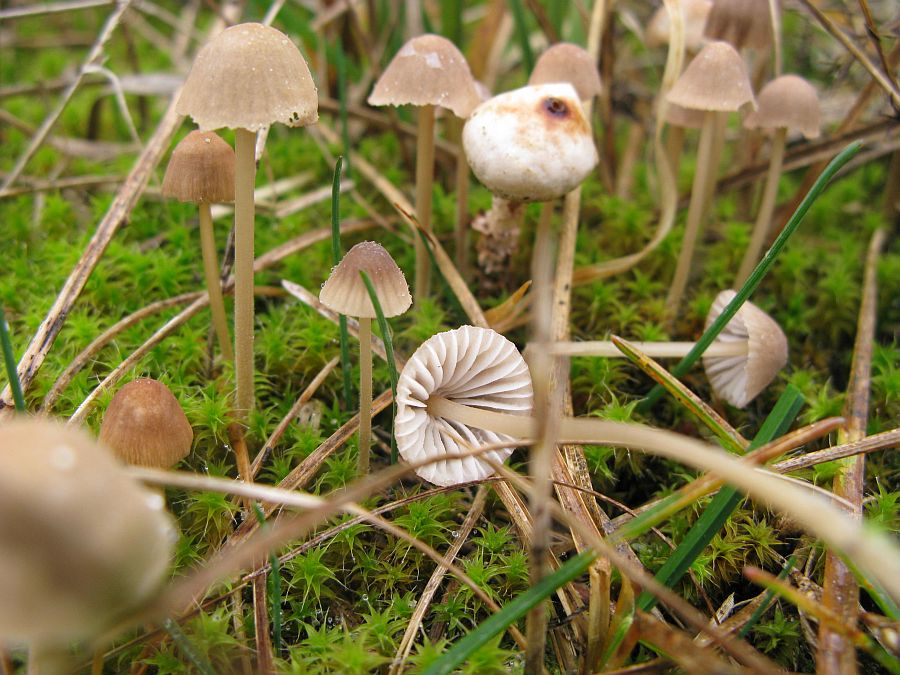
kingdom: Fungi
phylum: Basidiomycota
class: Agaricomycetes
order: Agaricales
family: Mycenaceae
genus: Mycena
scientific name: Mycena olivaceomarginata
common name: brunægget huesvamp
